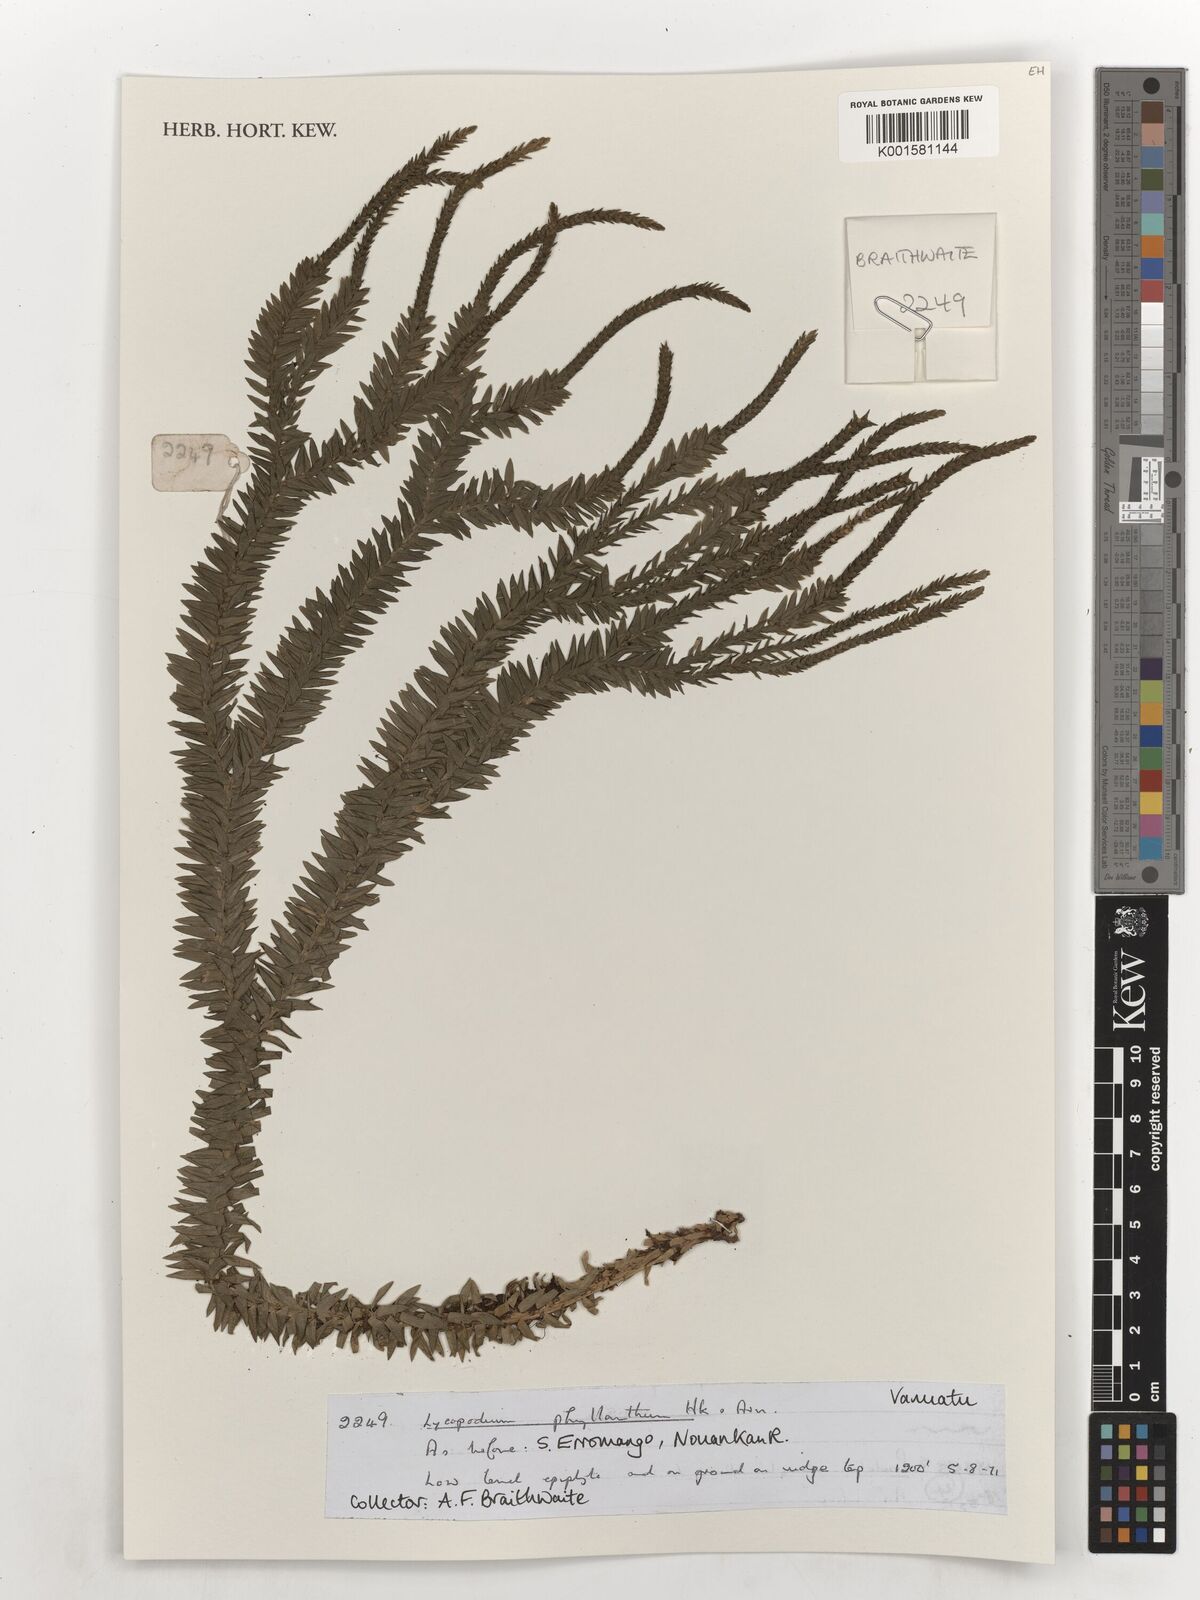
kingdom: Plantae
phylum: Tracheophyta
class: Lycopodiopsida
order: Lycopodiales
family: Lycopodiaceae
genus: Phlegmariurus
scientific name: Phlegmariurus phyllanthus
